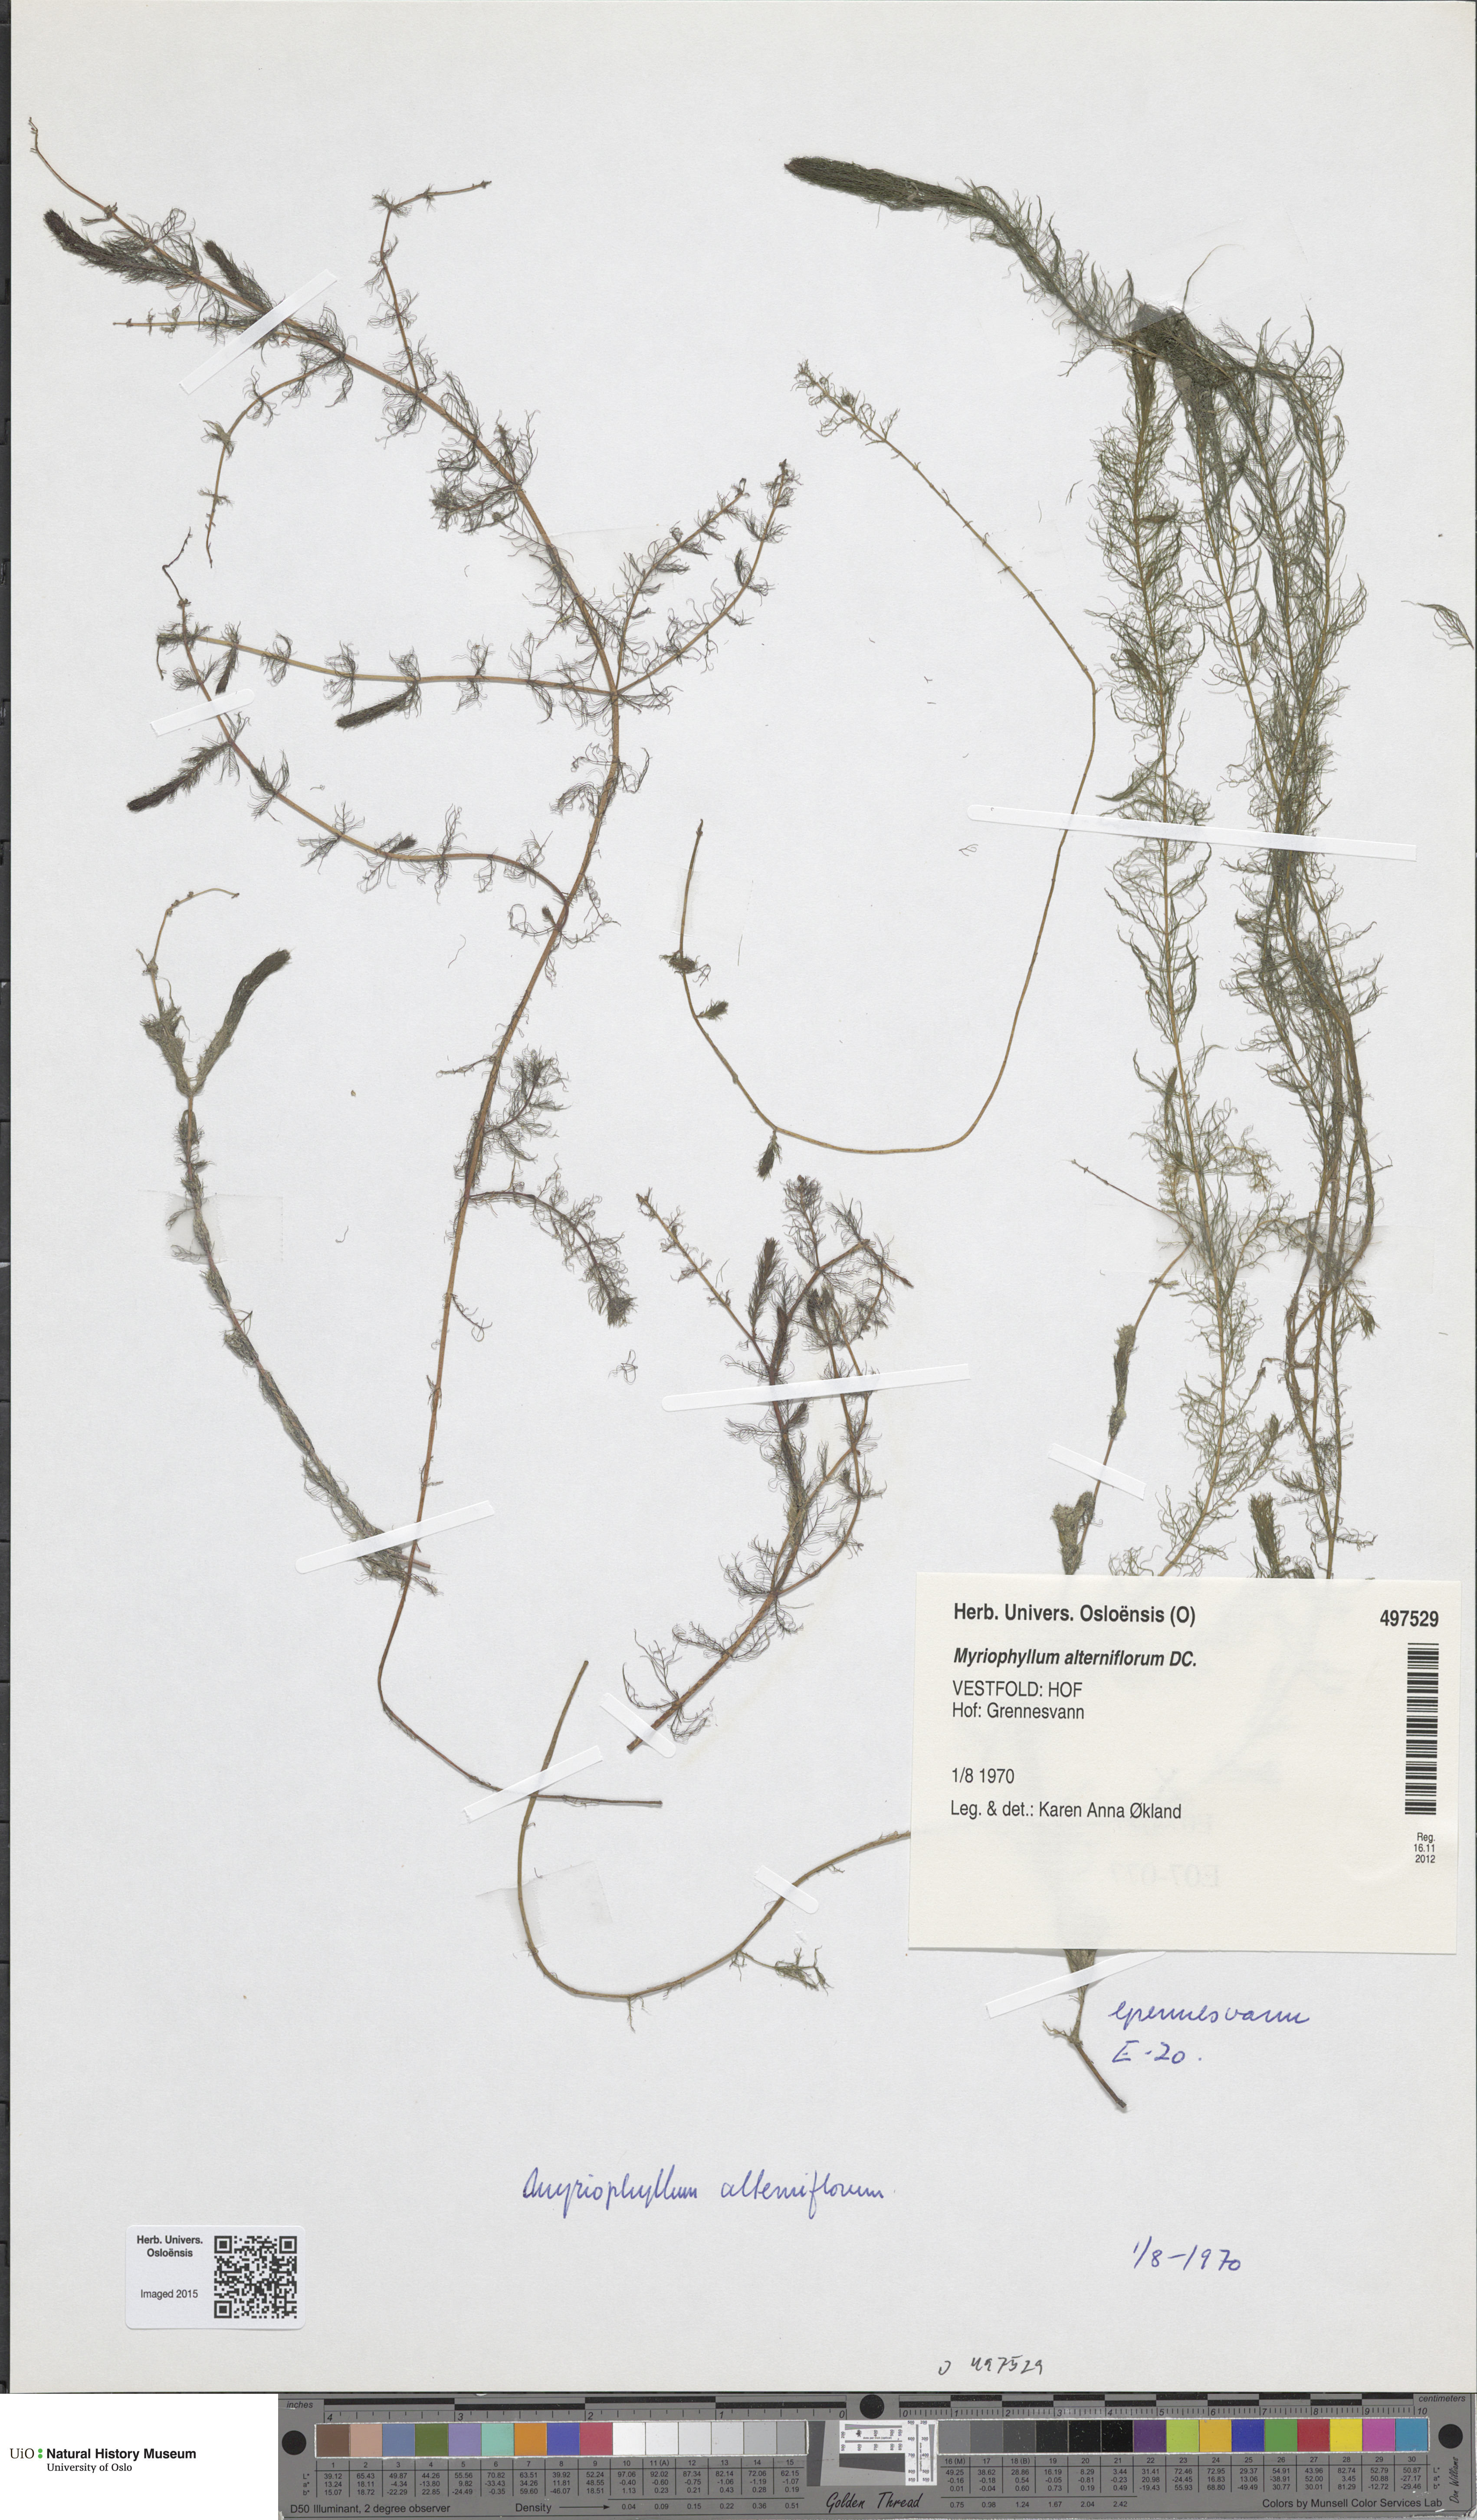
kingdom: Plantae
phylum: Tracheophyta
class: Magnoliopsida
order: Saxifragales
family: Haloragaceae
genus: Myriophyllum
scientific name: Myriophyllum alterniflorum
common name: Alternate water-milfoil
